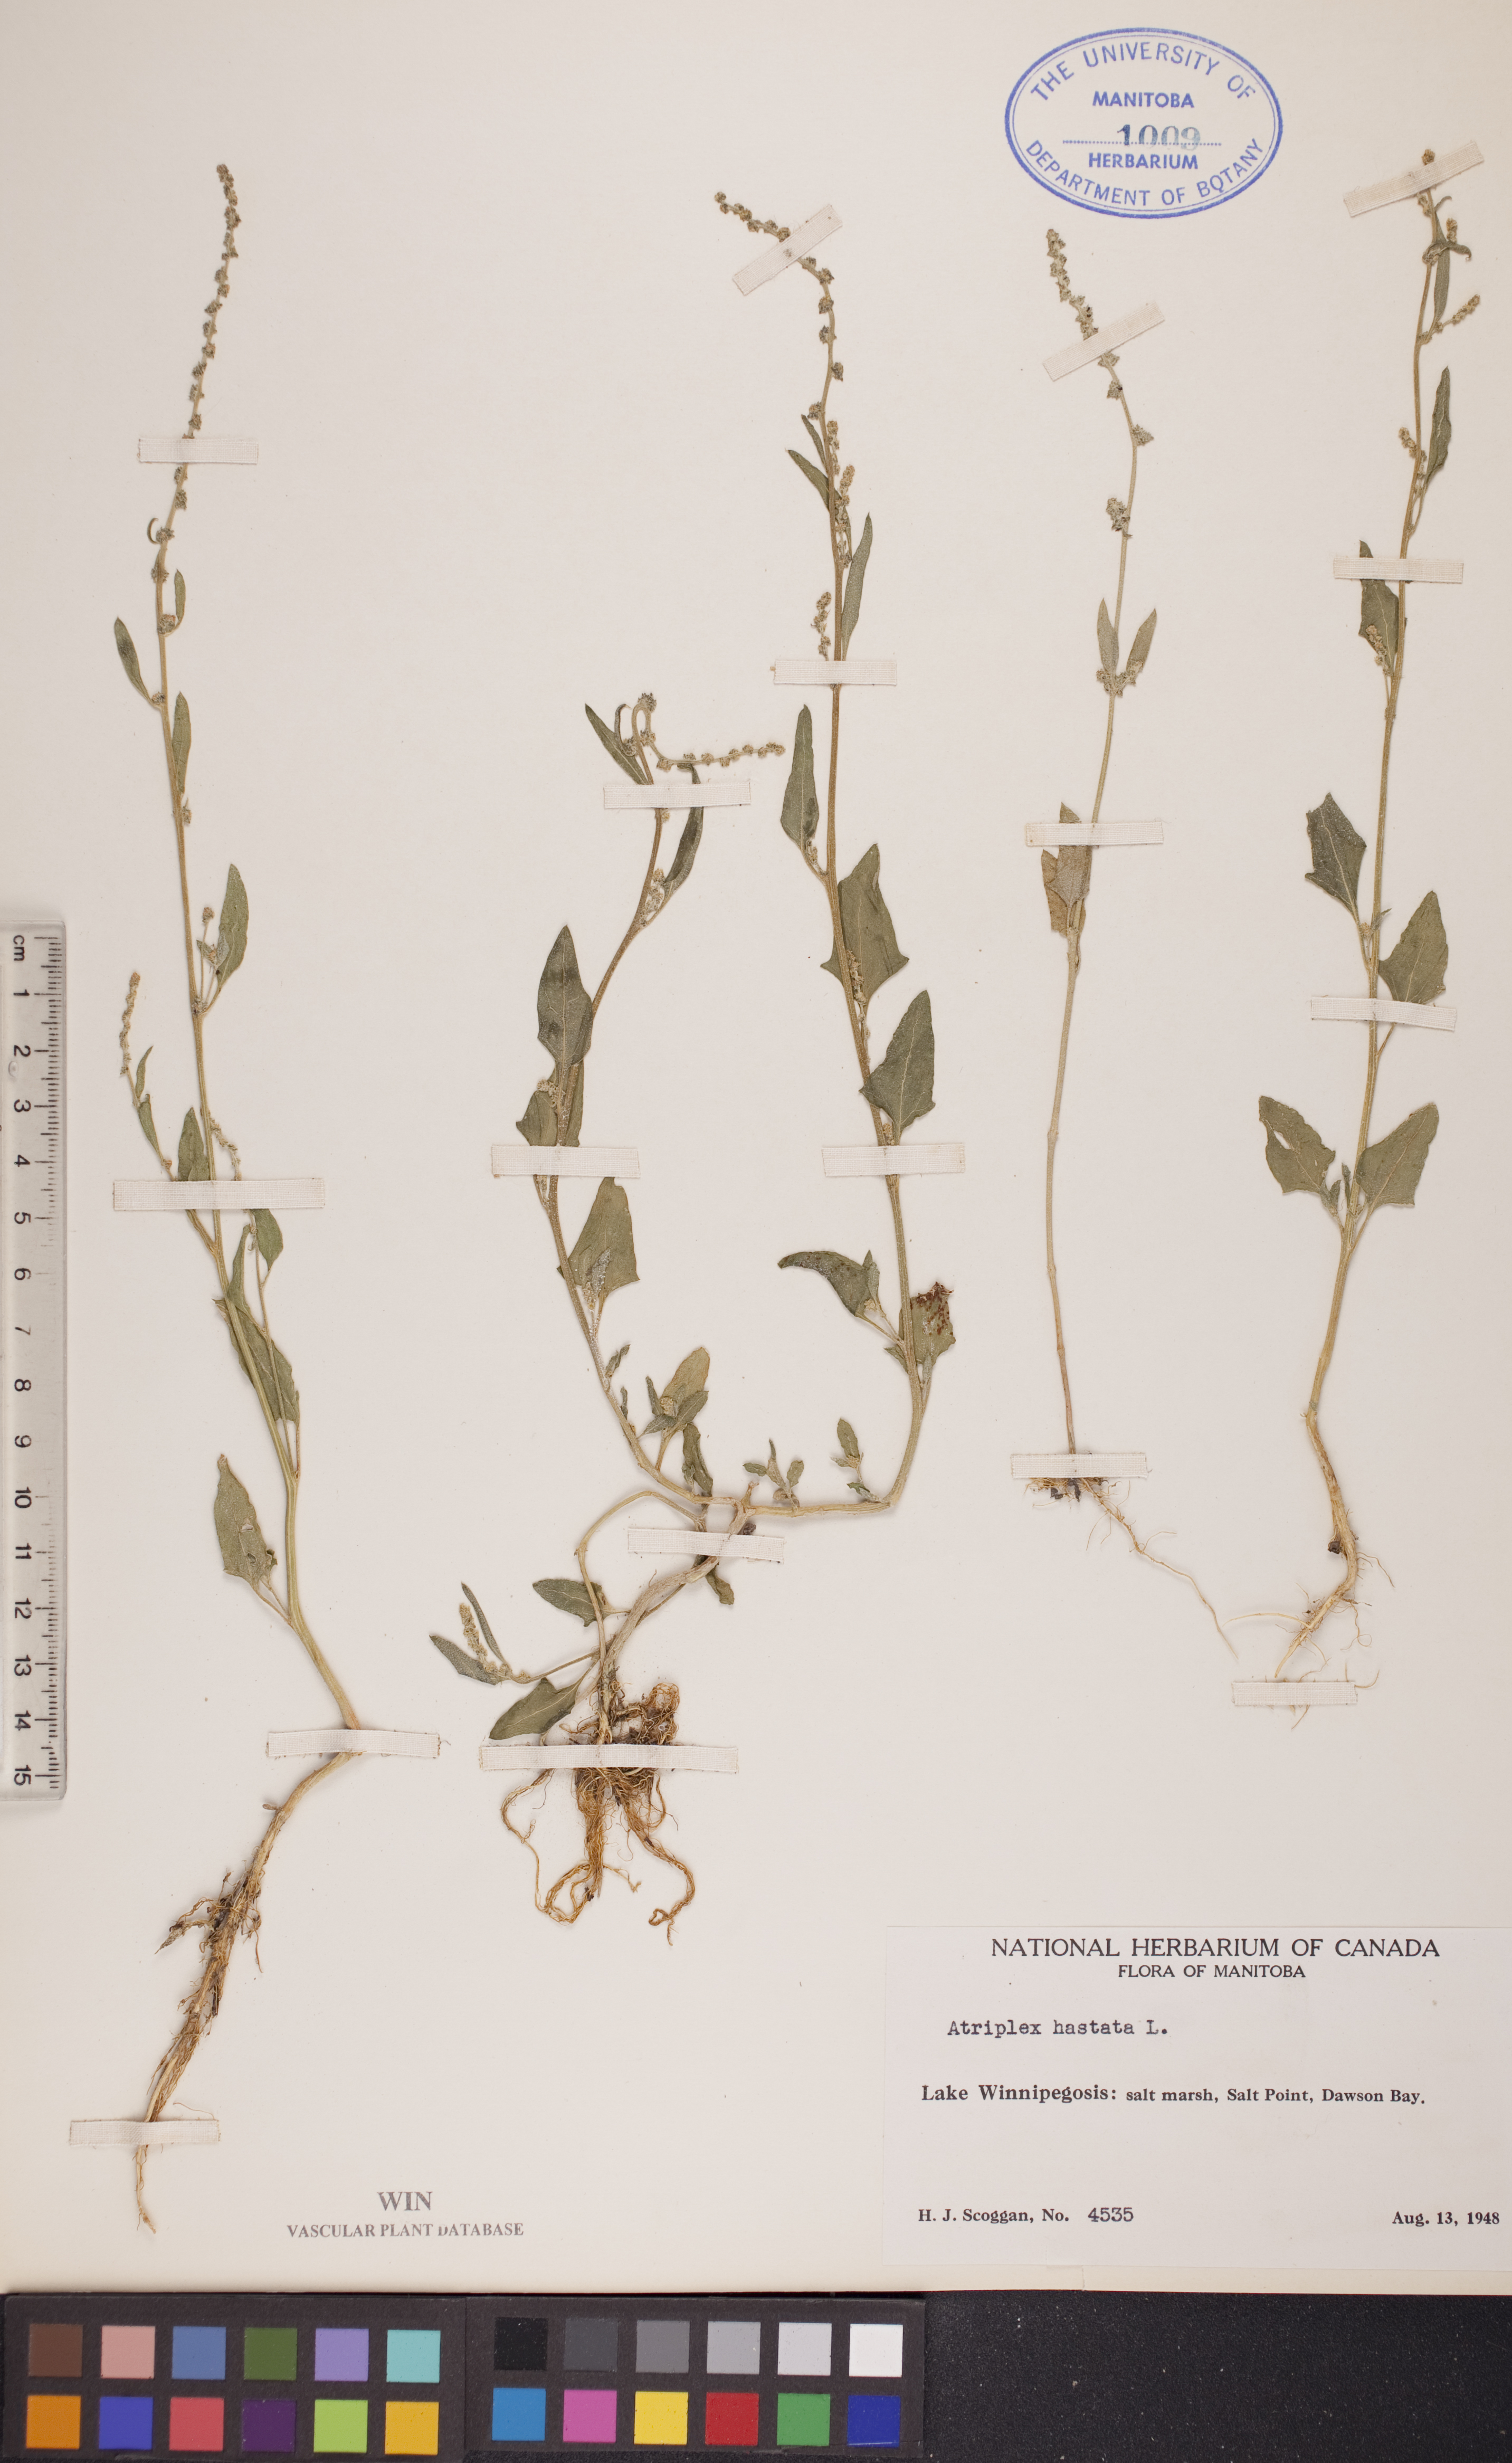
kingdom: Plantae
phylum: Tracheophyta
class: Magnoliopsida
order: Caryophyllales
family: Amaranthaceae
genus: Atriplex
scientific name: Atriplex
